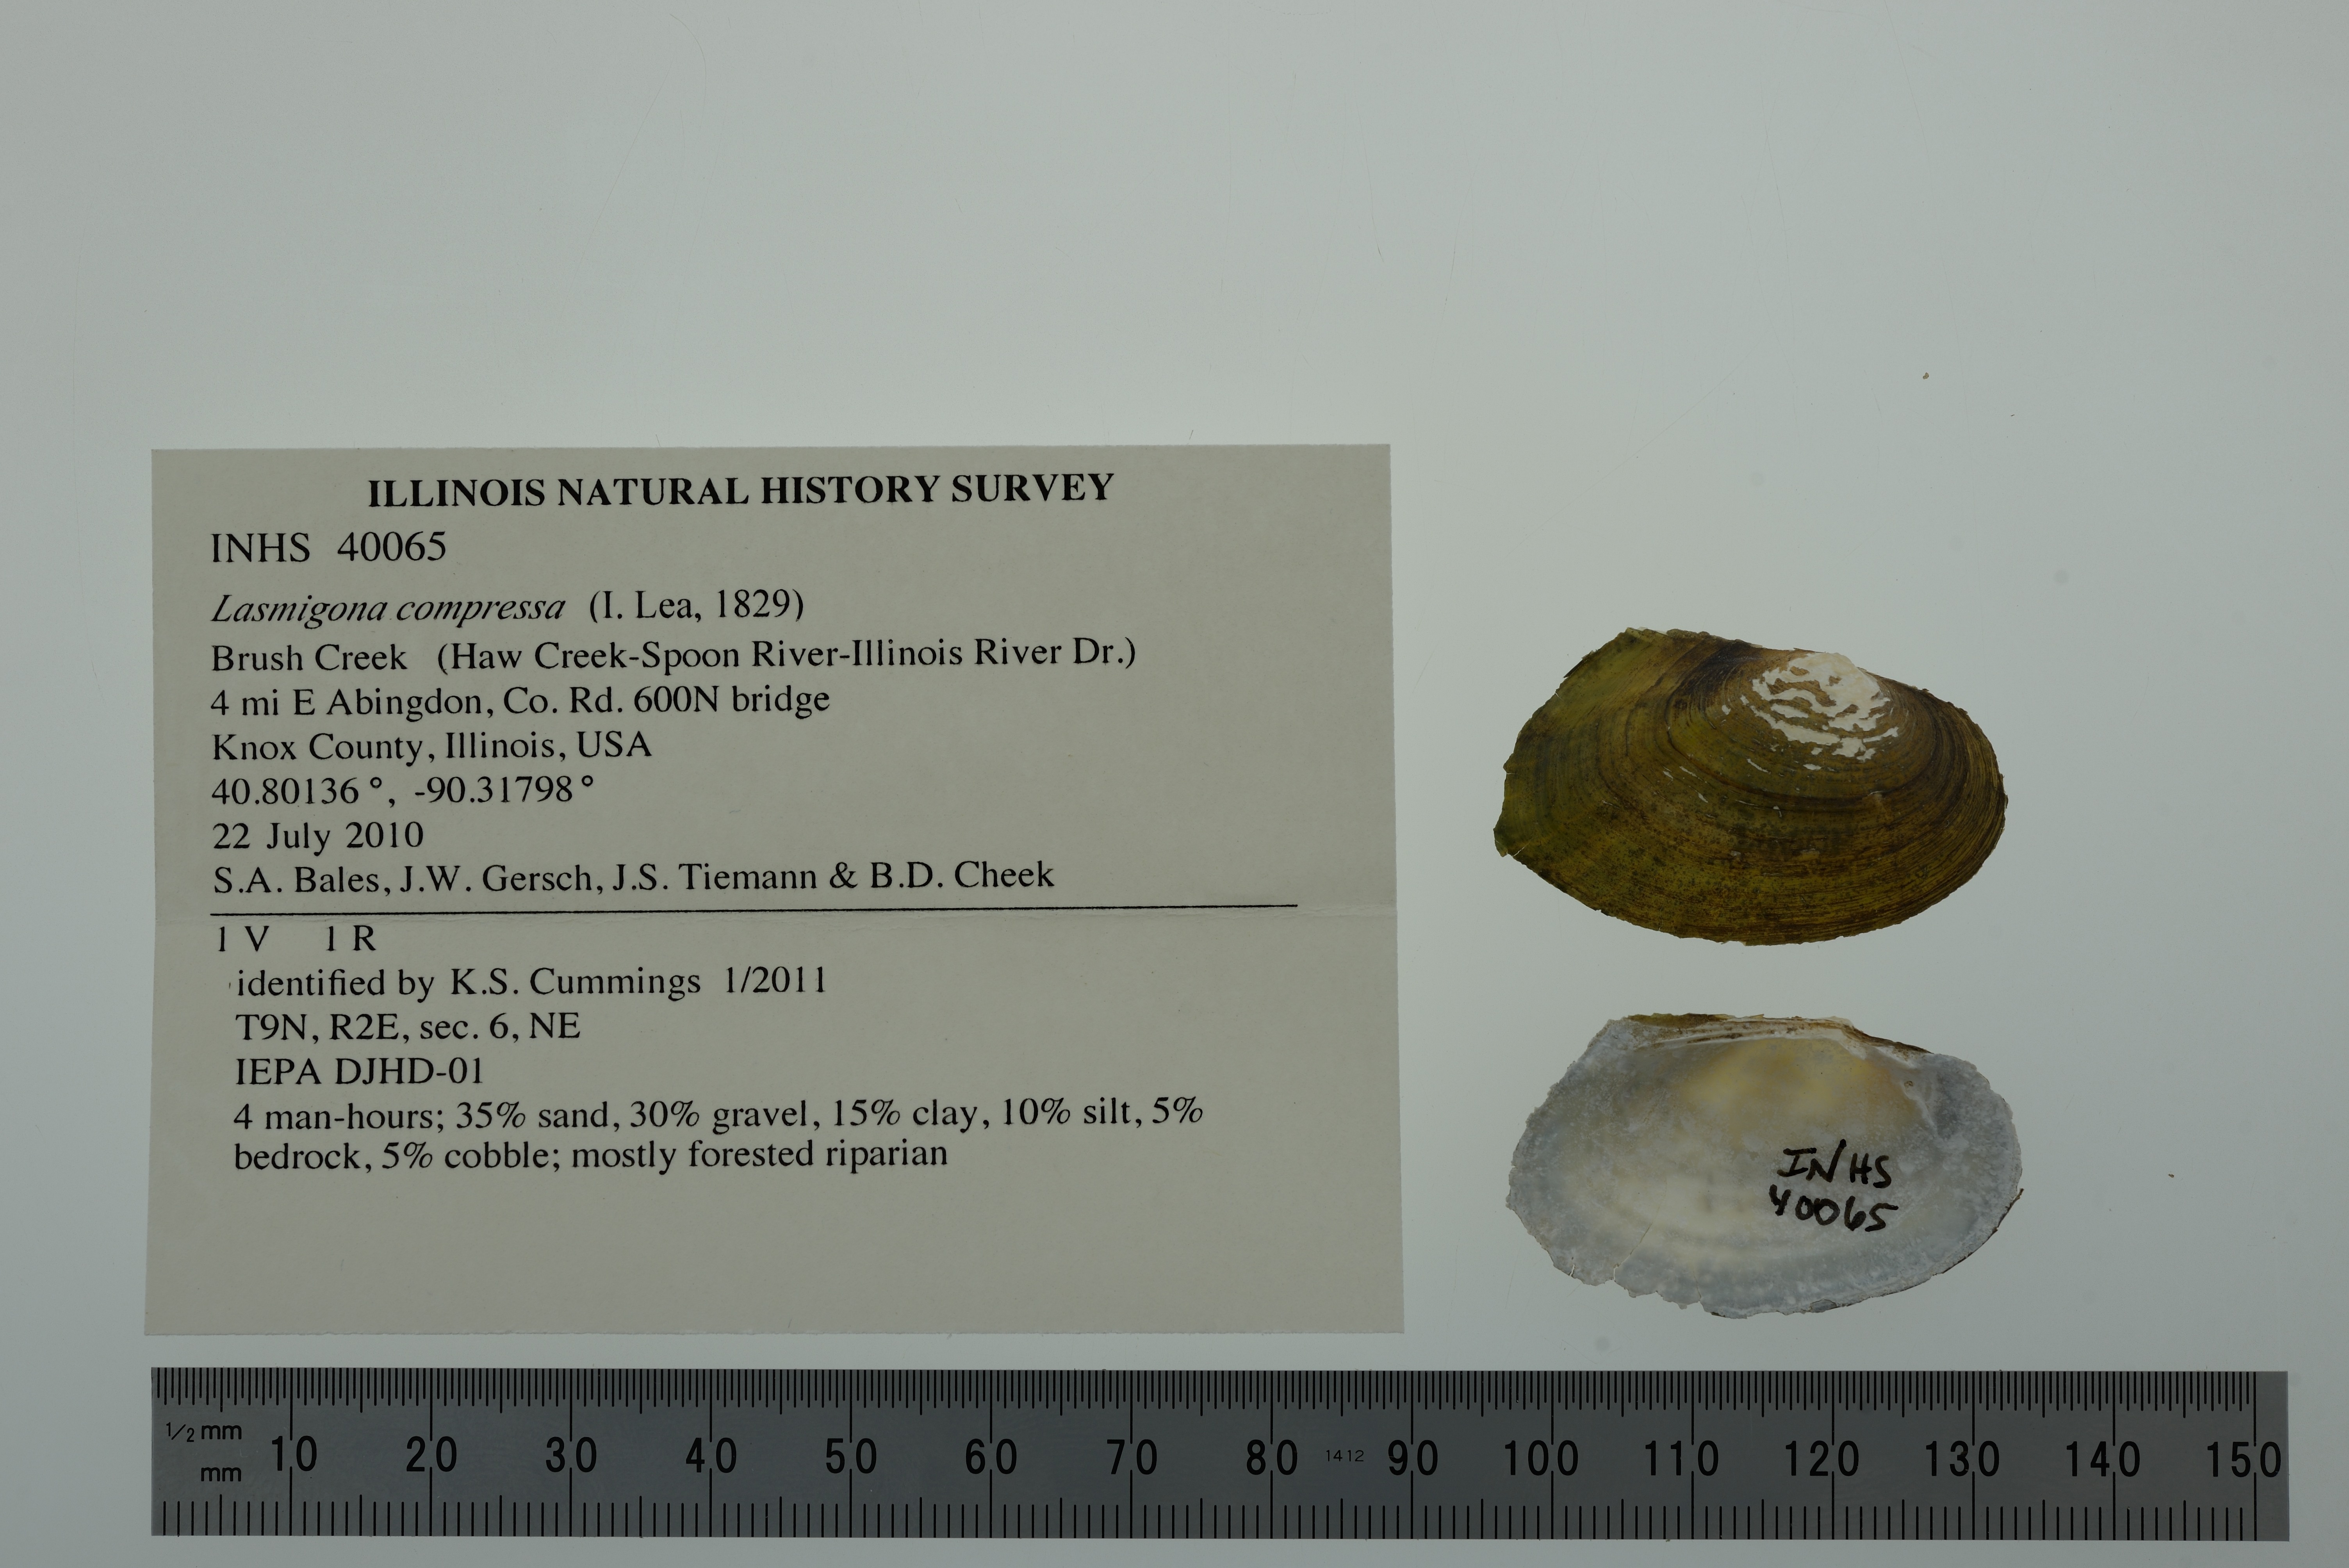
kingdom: Animalia
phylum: Mollusca
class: Bivalvia
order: Unionida
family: Unionidae
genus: Lasmigona
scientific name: Lasmigona compressa
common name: Creek heelsplitter
